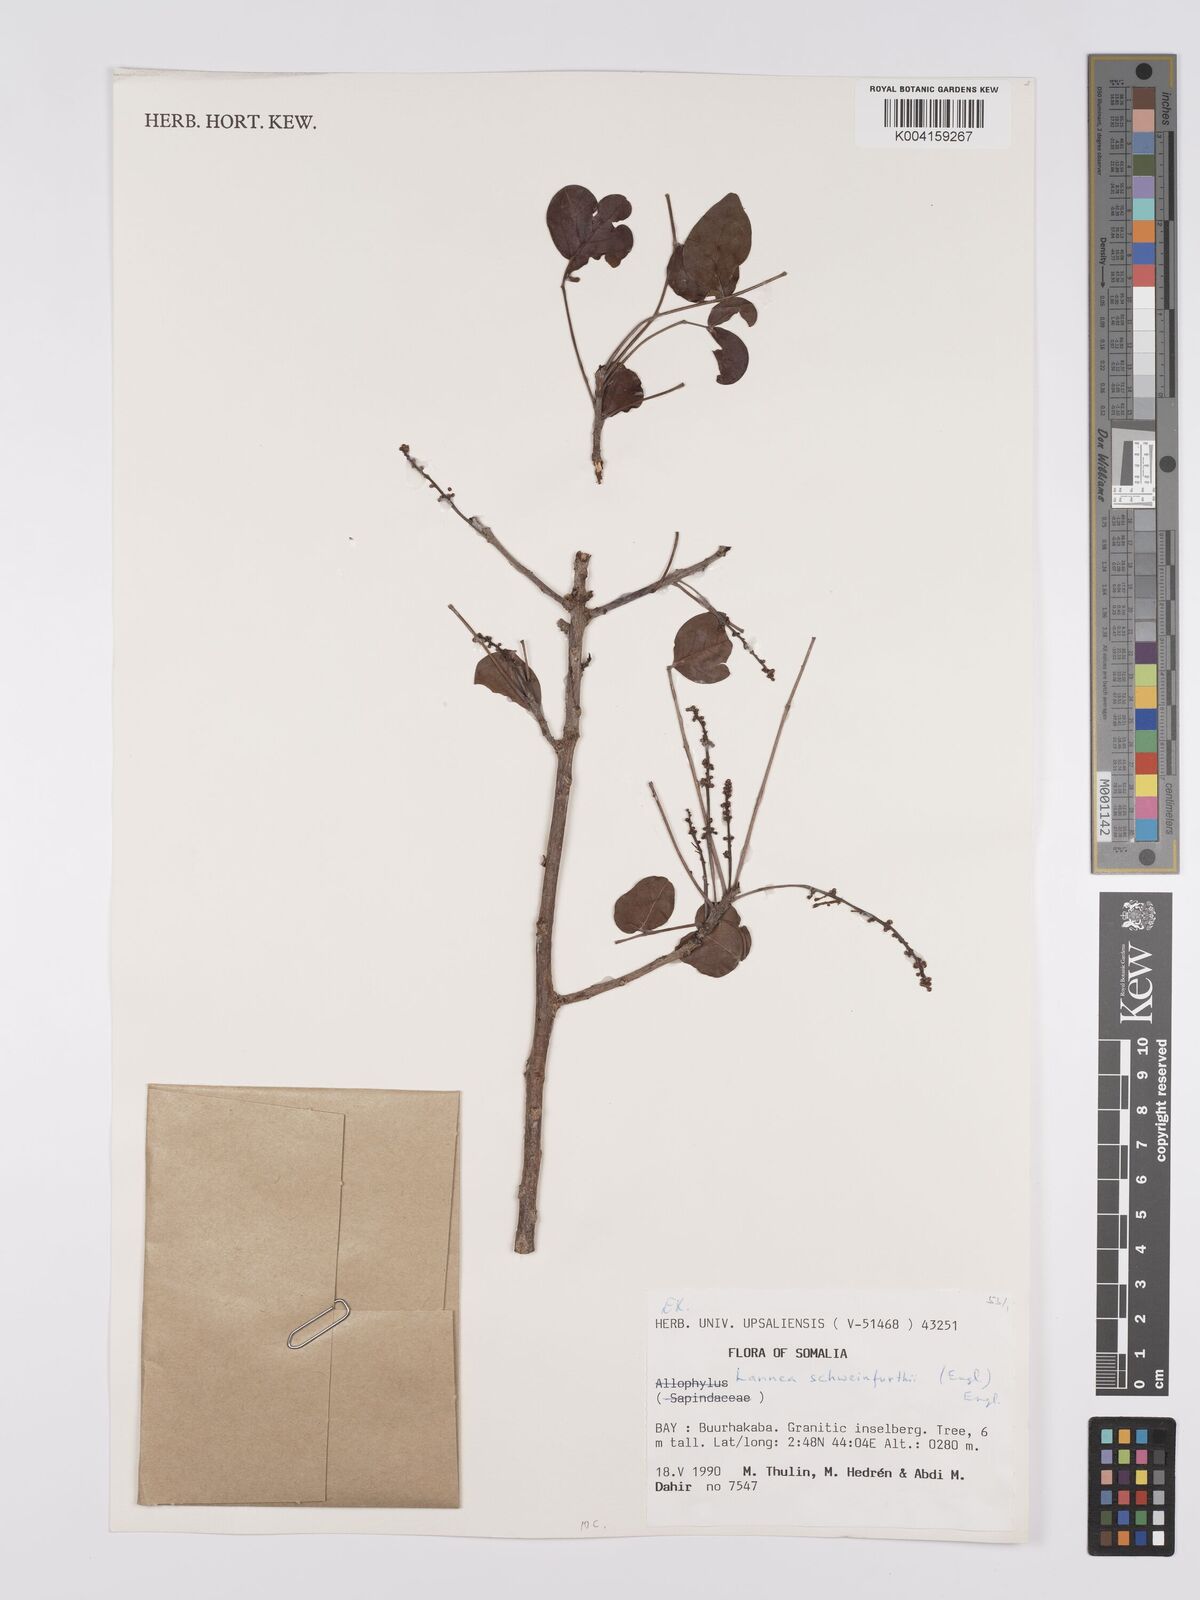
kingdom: Plantae
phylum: Tracheophyta
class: Magnoliopsida
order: Sapindales
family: Anacardiaceae
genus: Lannea
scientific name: Lannea schweinfurthii
